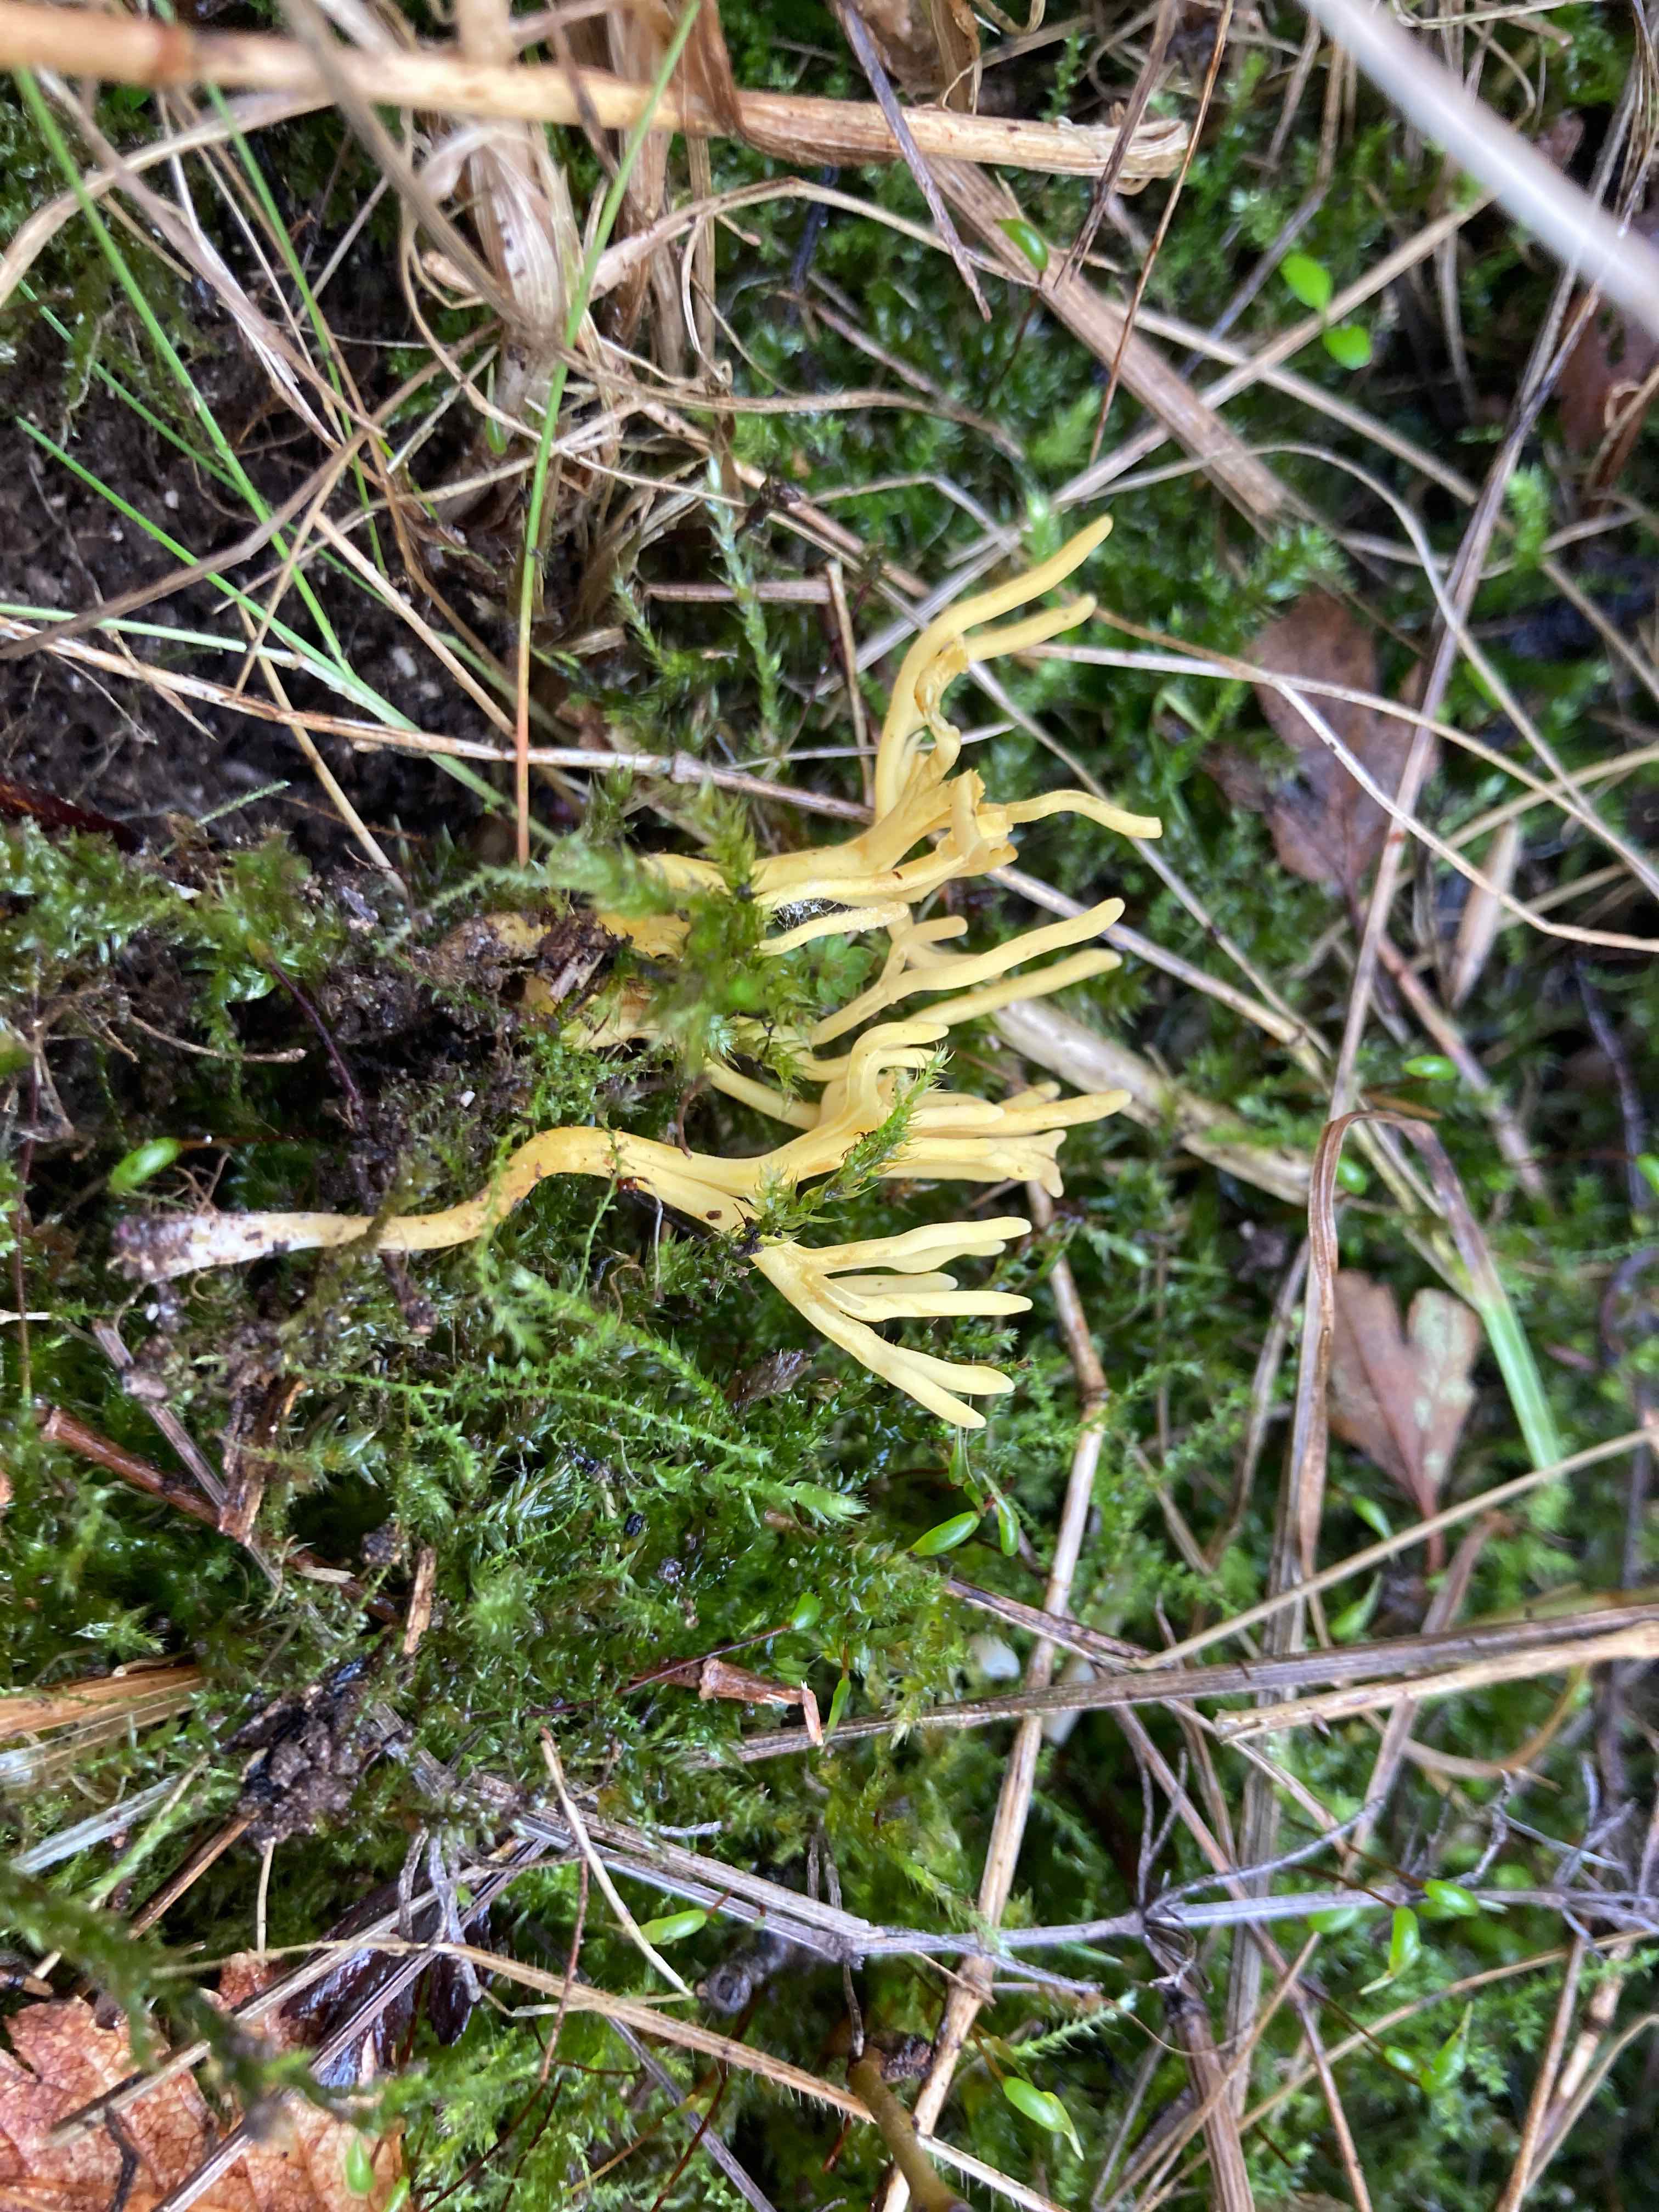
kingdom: Fungi
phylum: Basidiomycota
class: Agaricomycetes
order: Agaricales
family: Clavariaceae
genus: Clavulinopsis
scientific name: Clavulinopsis corniculata
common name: eng-køllesvamp
